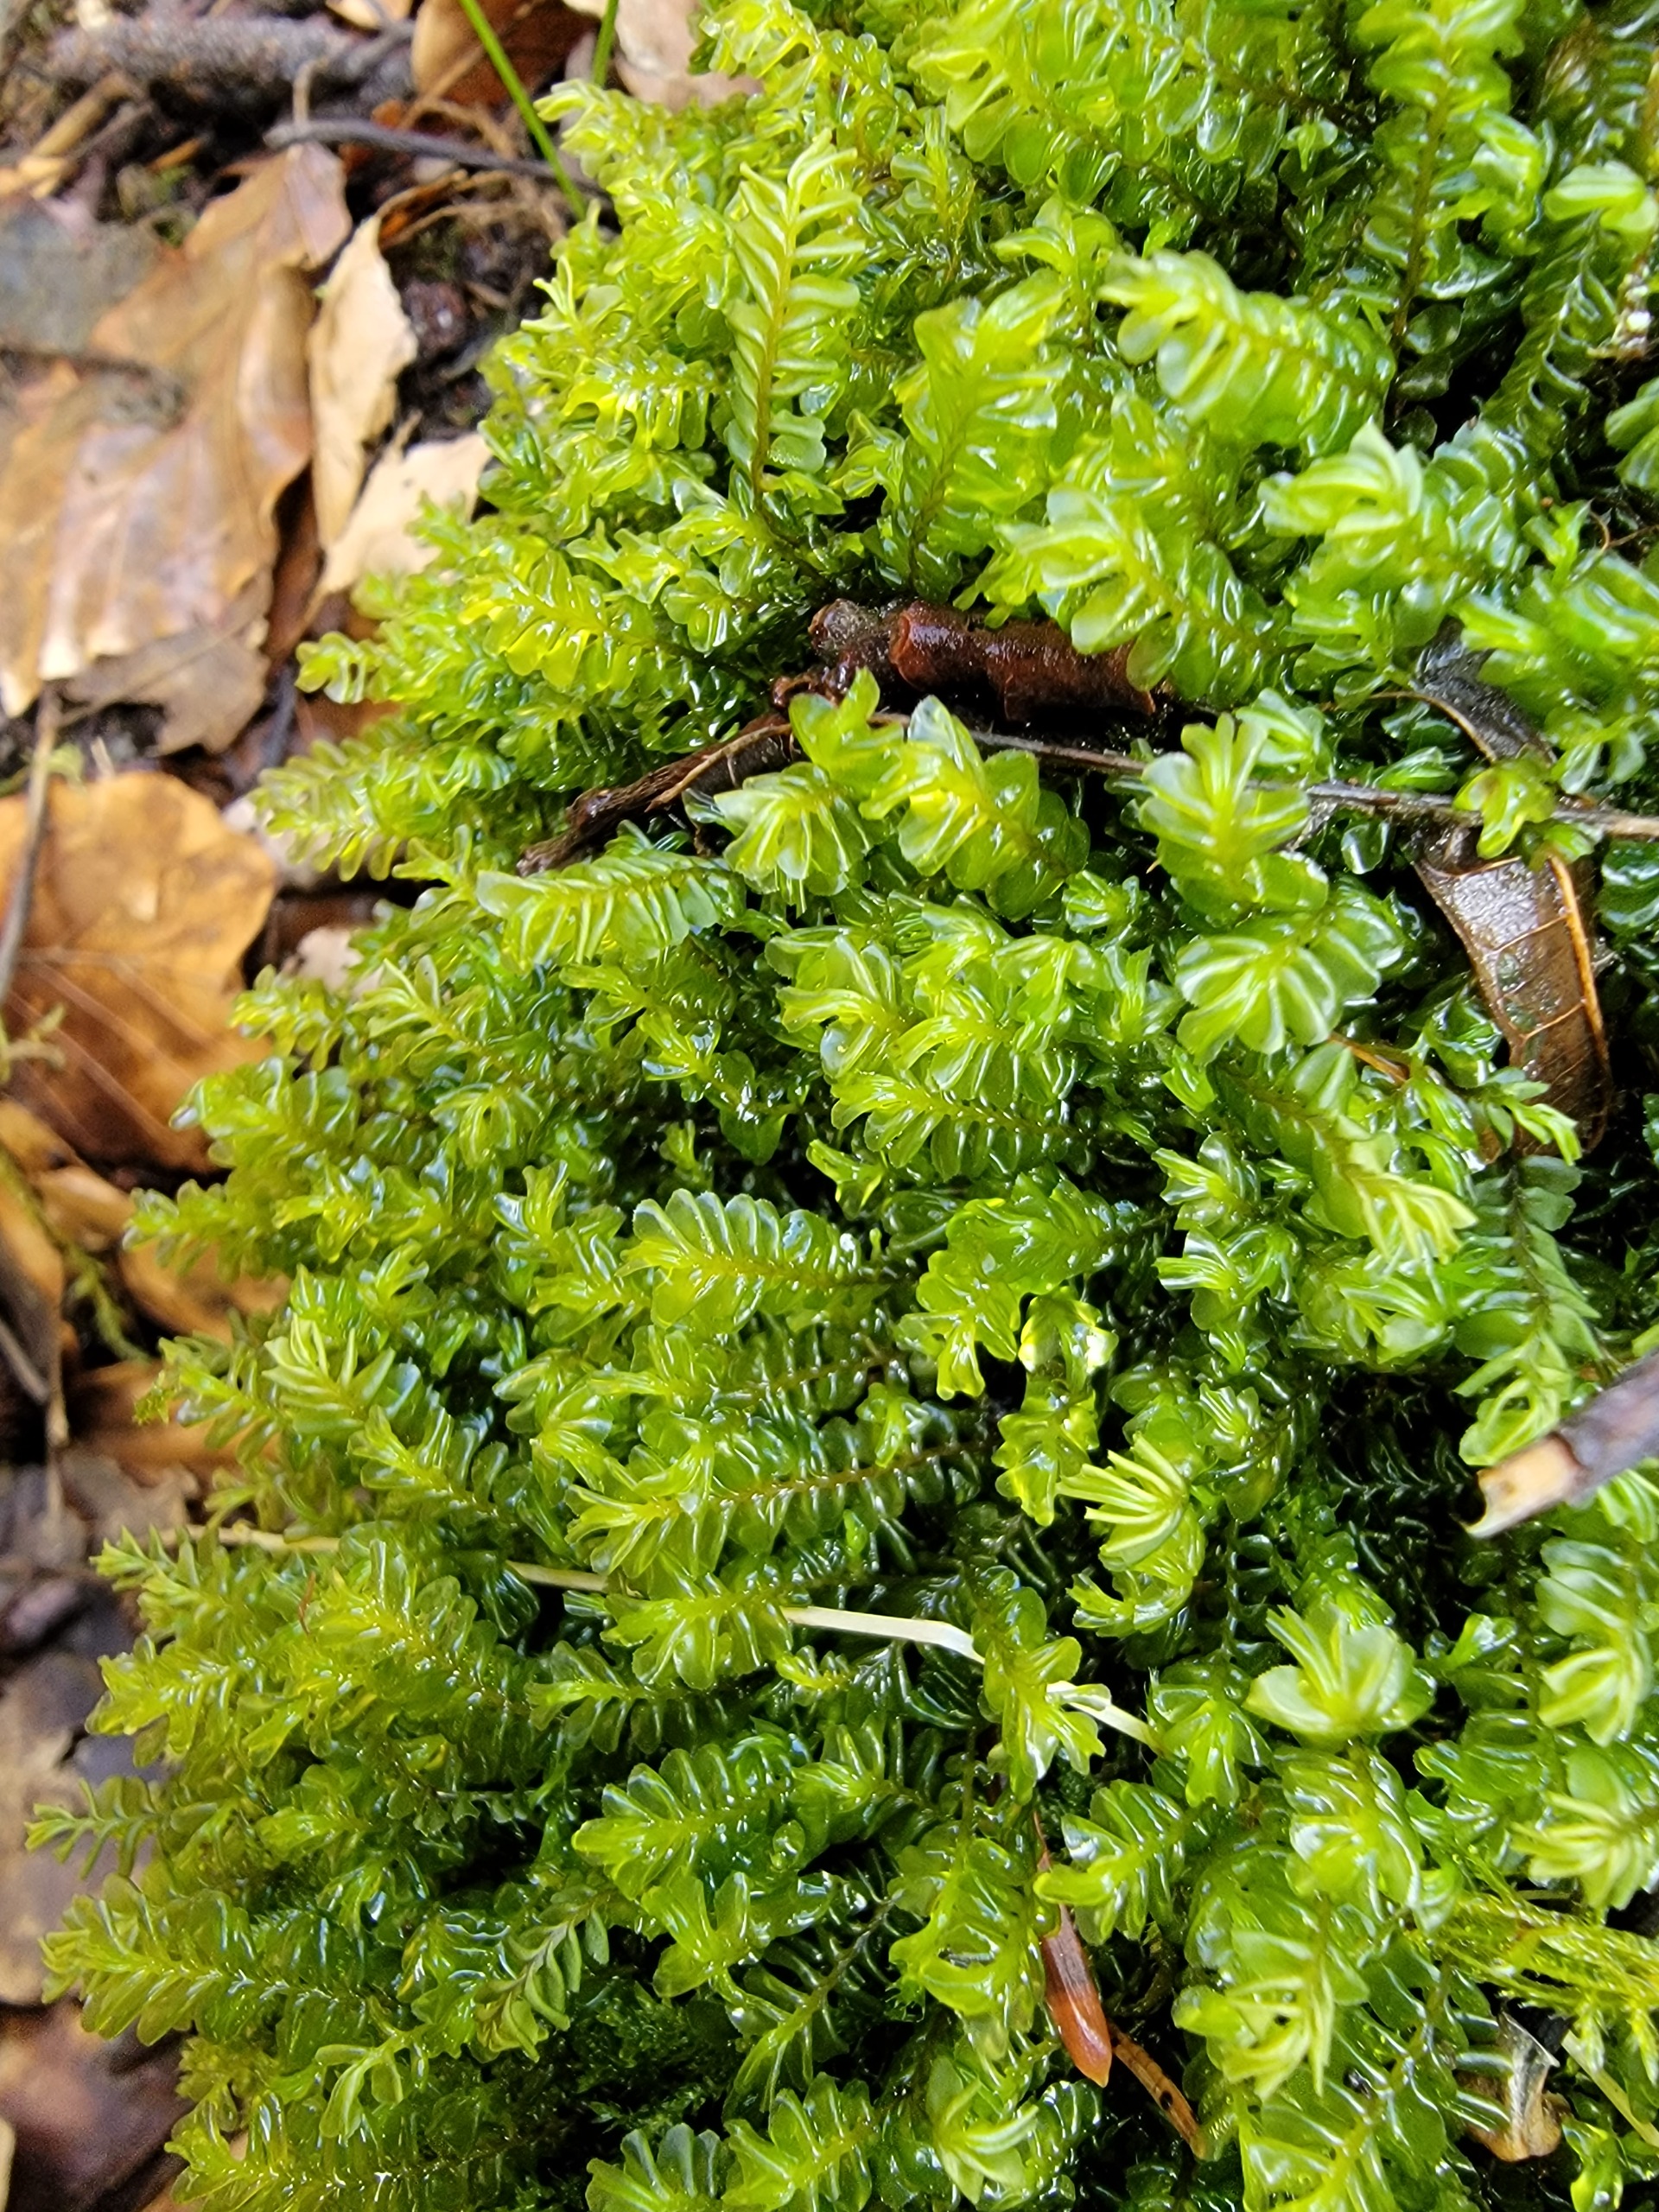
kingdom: Plantae
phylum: Marchantiophyta
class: Jungermanniopsida
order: Jungermanniales
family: Plagiochilaceae
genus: Plagiochila
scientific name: Plagiochila porelloides
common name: Liden hindeblad
